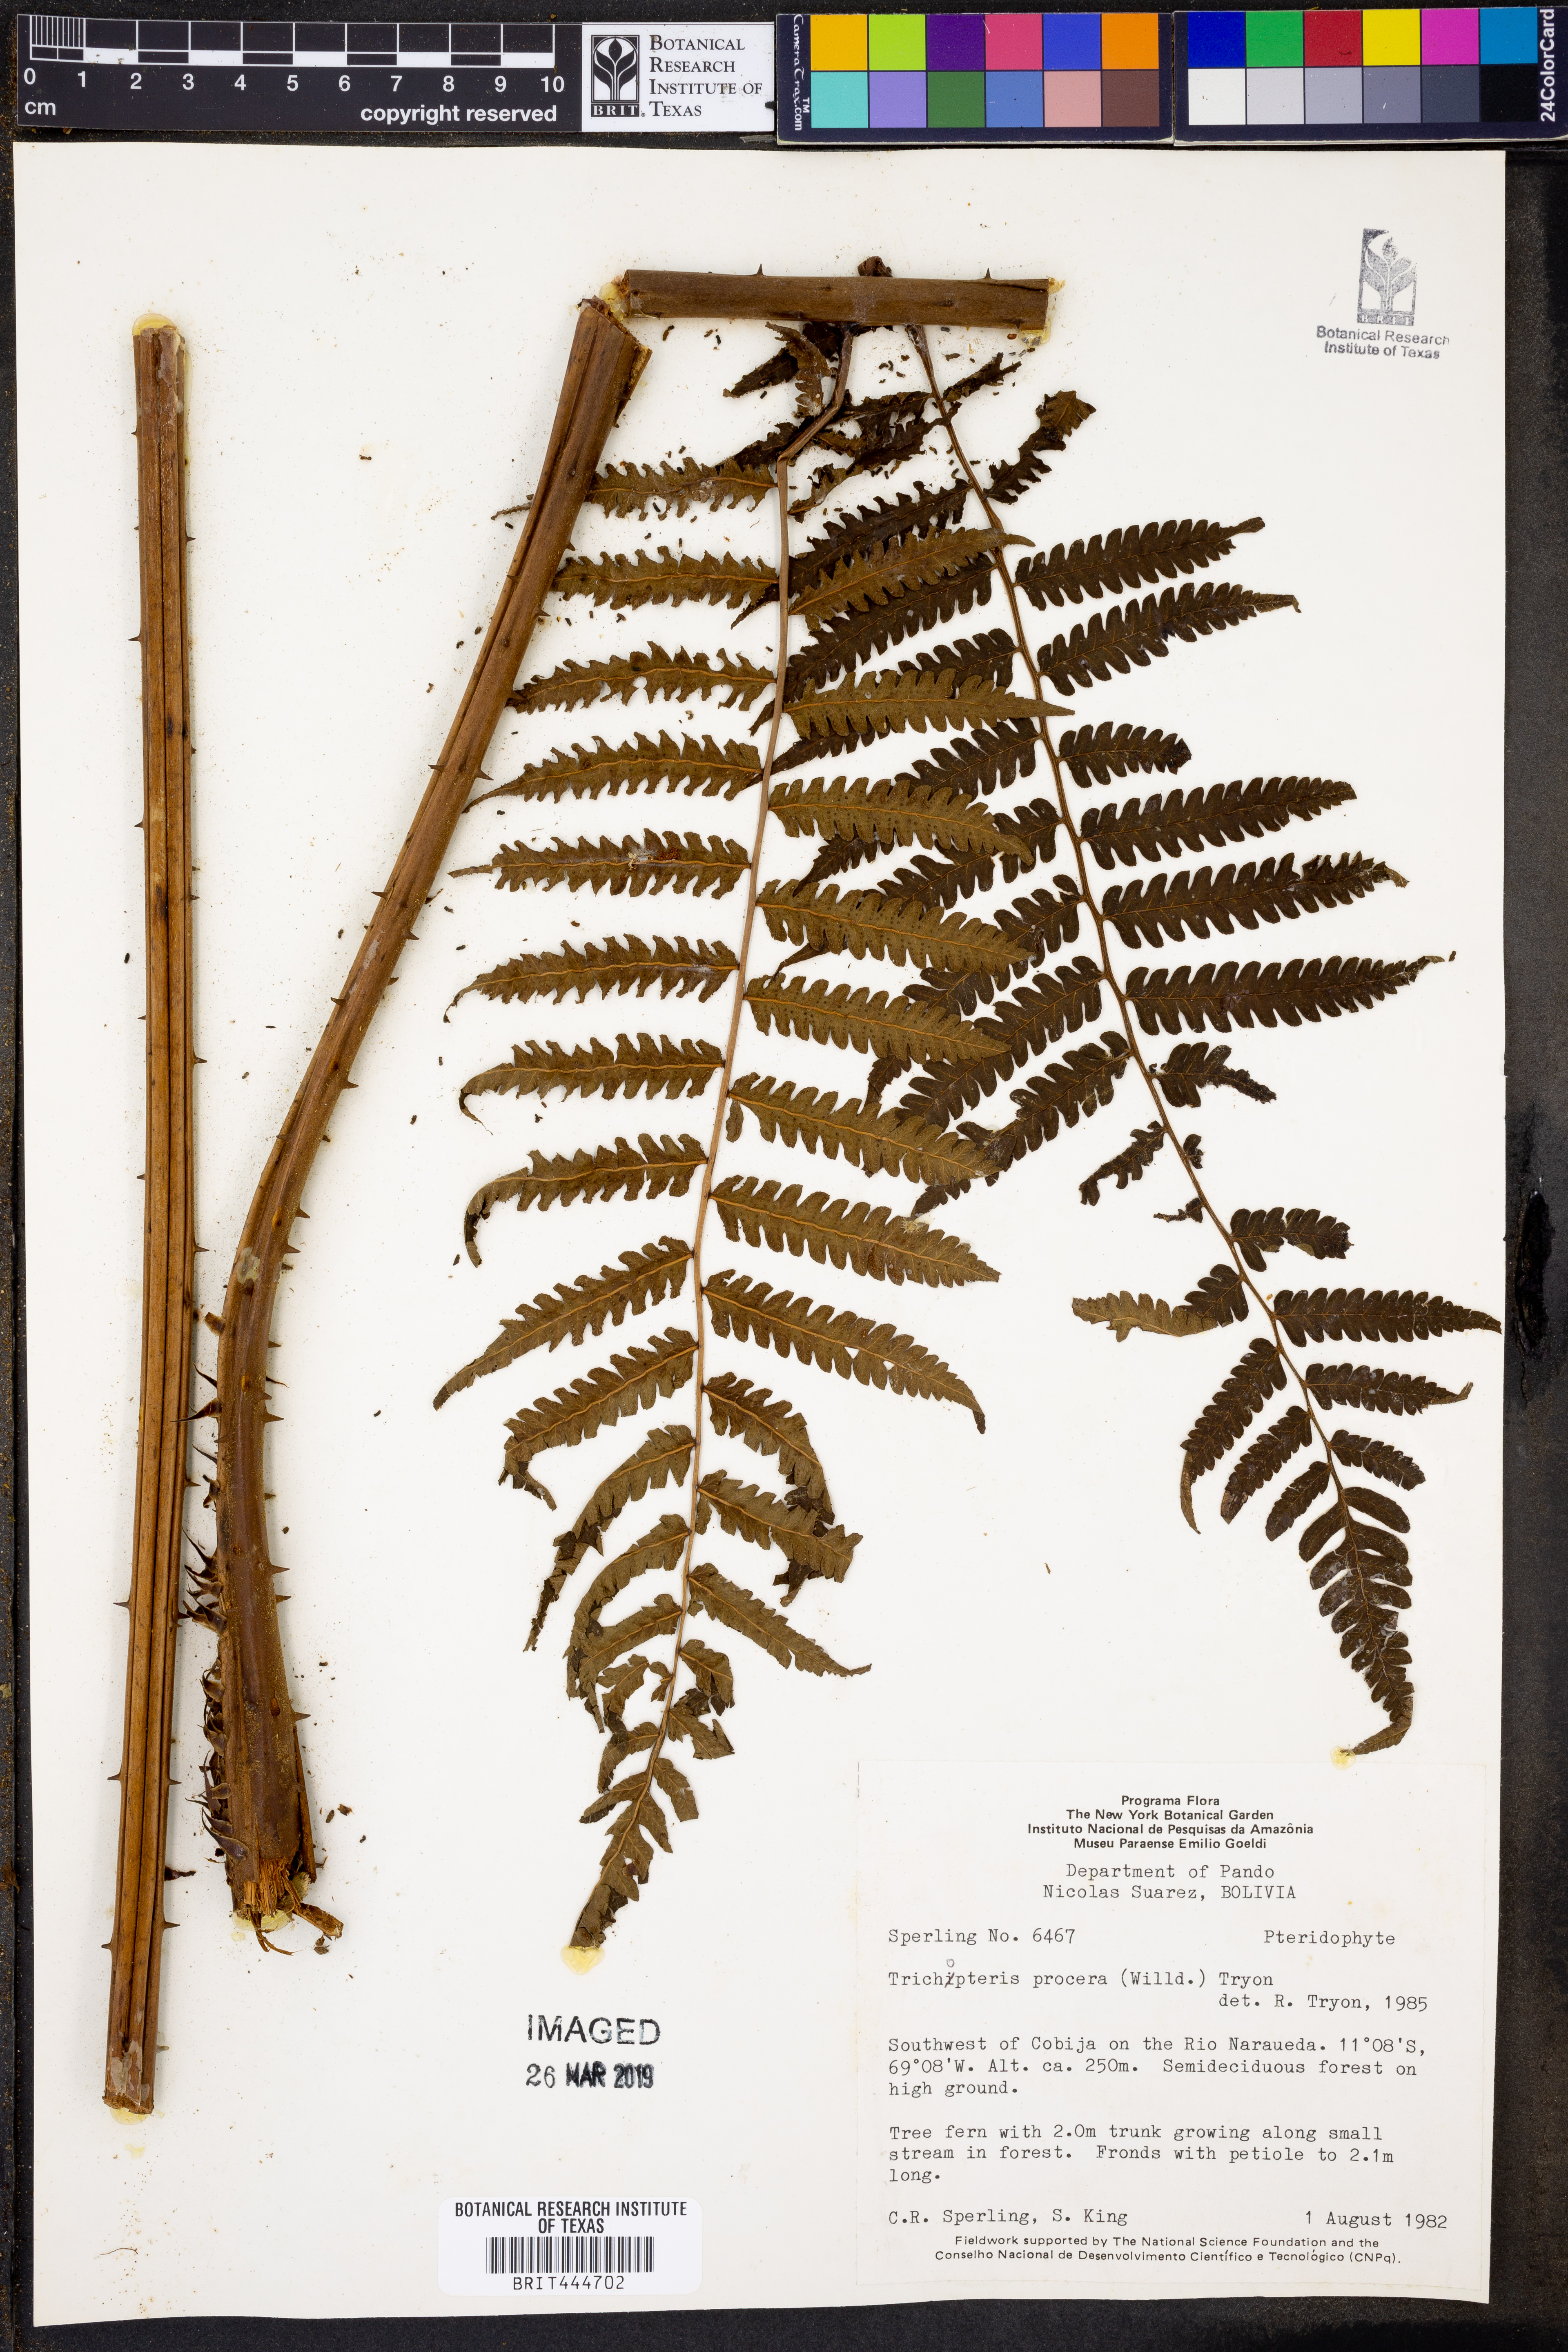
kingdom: Plantae
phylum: Tracheophyta
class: Polypodiopsida
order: Cyatheales
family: Cyatheaceae
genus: Cyathea
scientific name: Cyathea pungens
